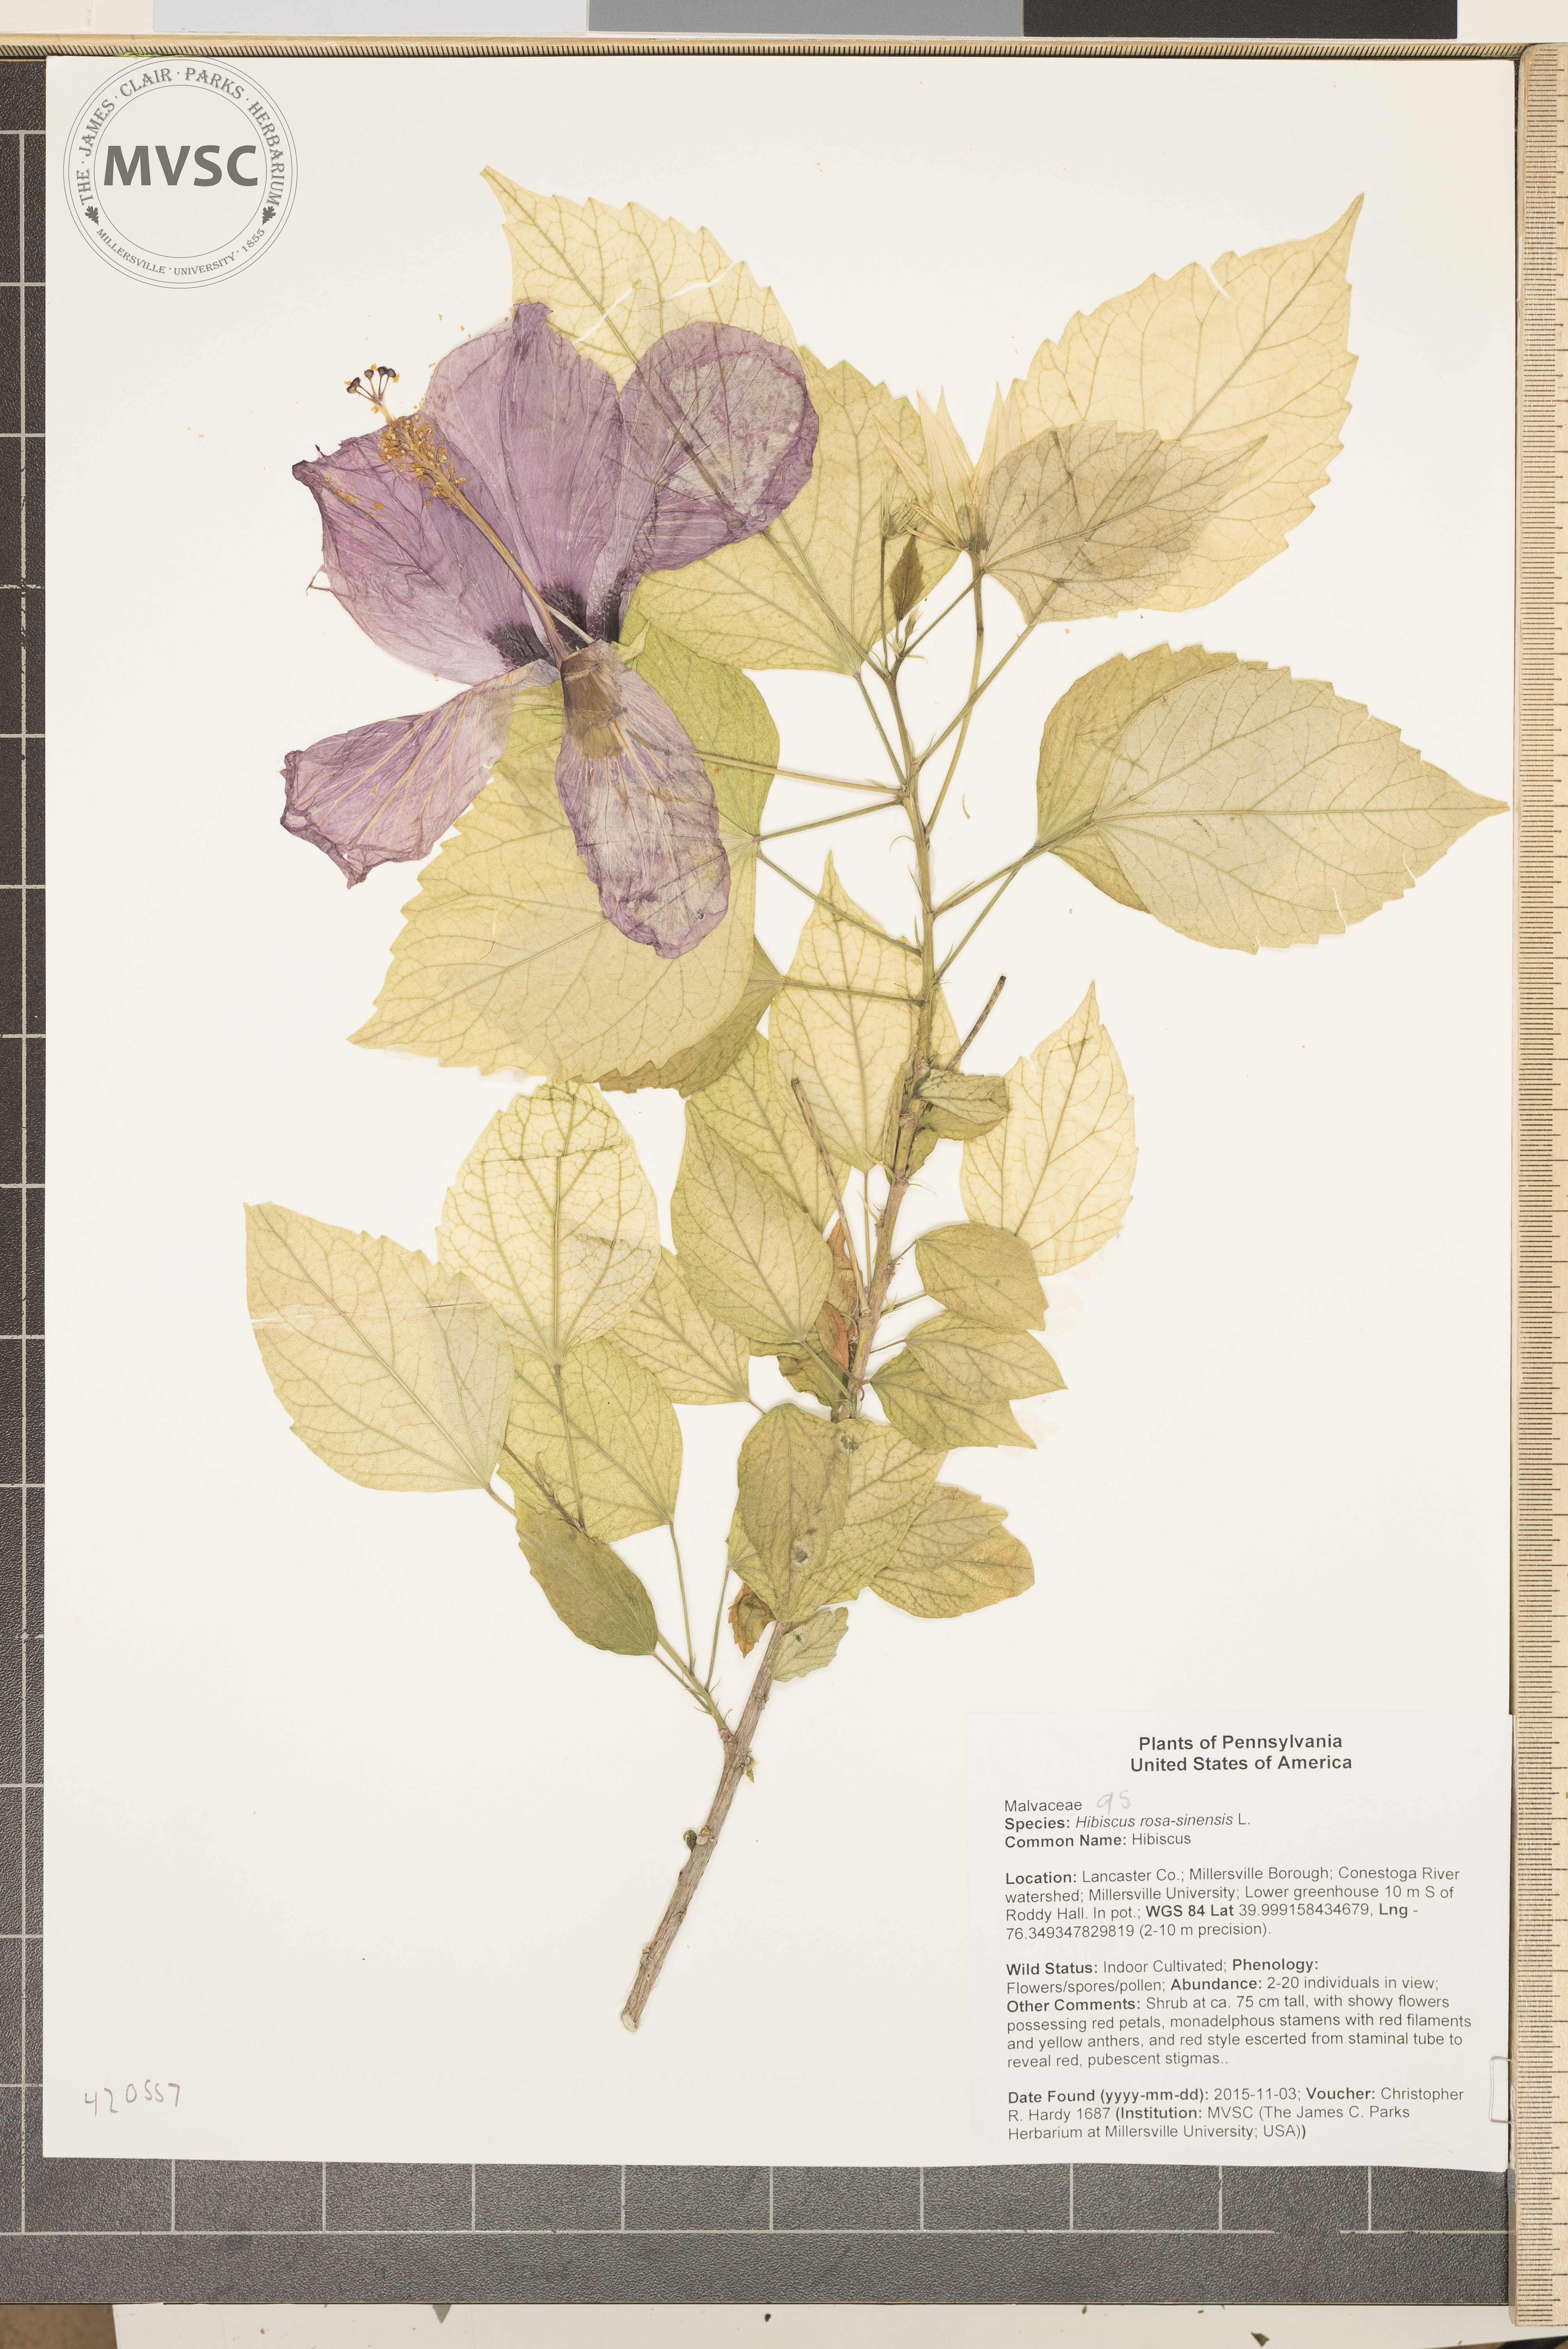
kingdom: Plantae
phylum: Tracheophyta
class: Magnoliopsida
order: Malvales
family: Malvaceae
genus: Hibiscus
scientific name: Hibiscus rosa-sinensis
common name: Hibiscus
